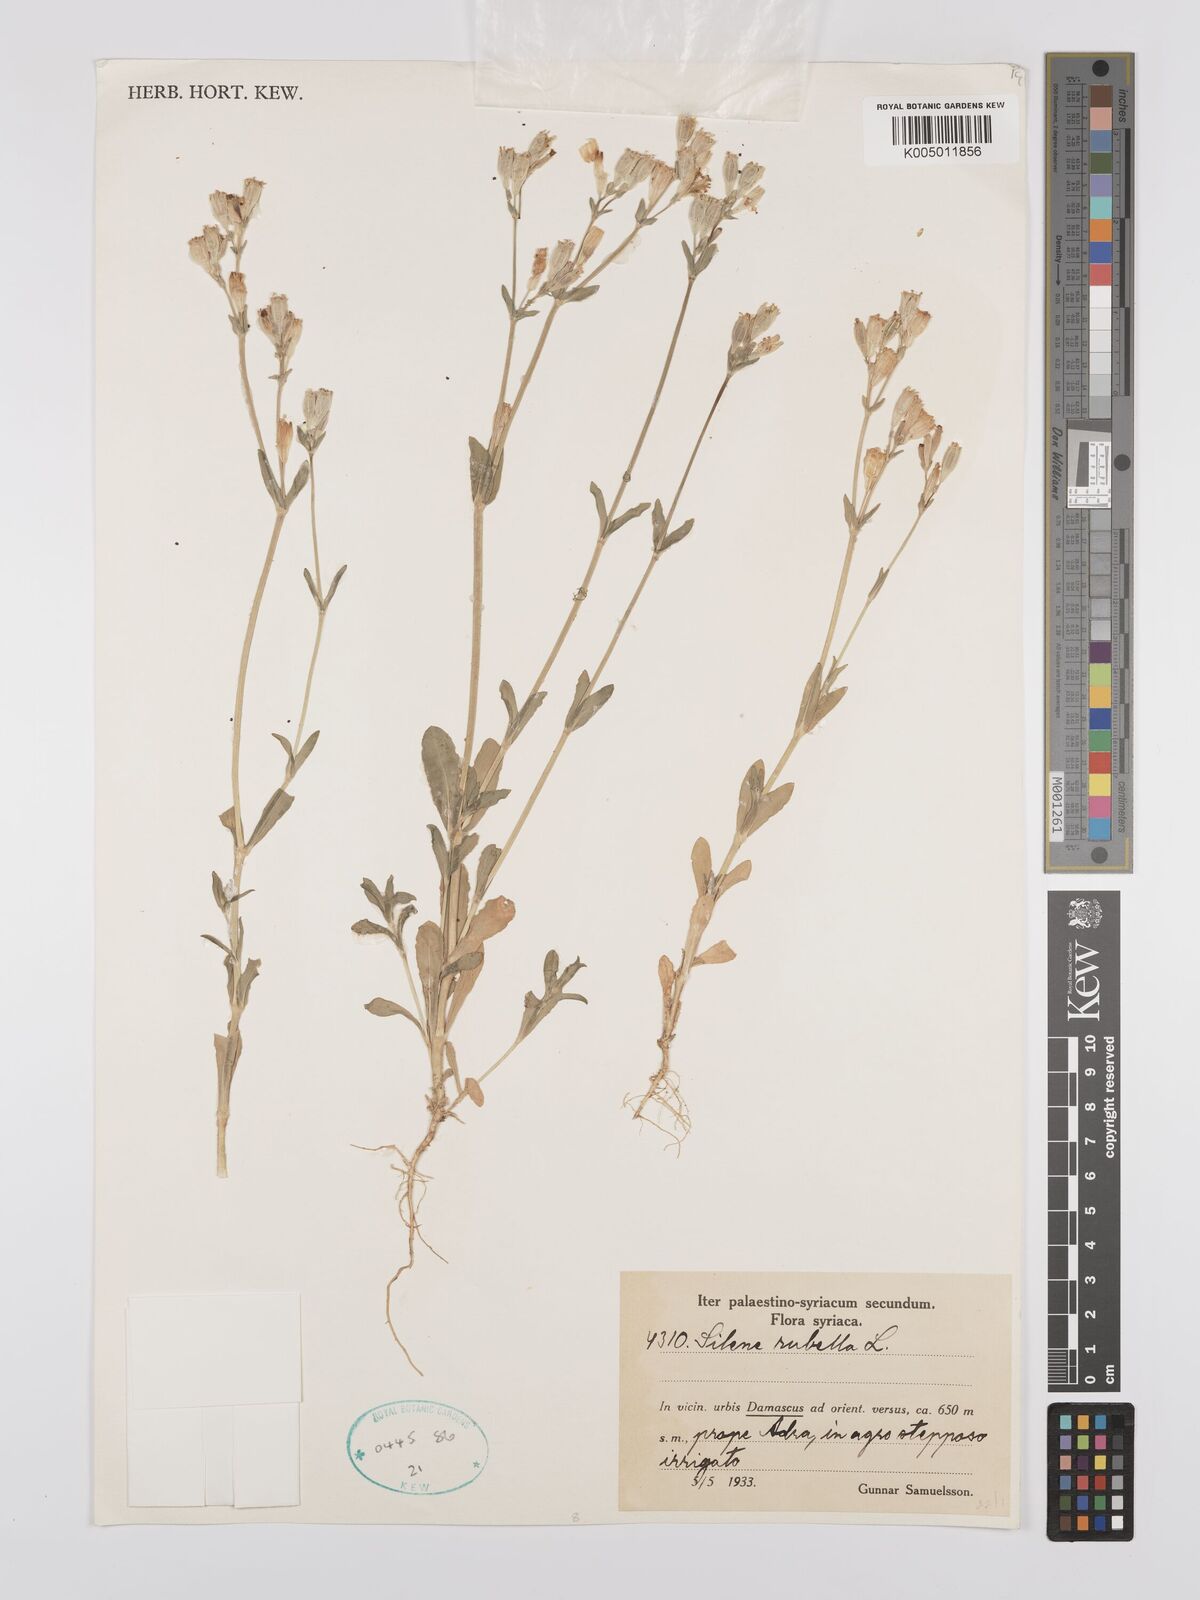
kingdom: Plantae
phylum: Tracheophyta
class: Magnoliopsida
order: Caryophyllales
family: Caryophyllaceae
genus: Silene
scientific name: Silene rubella
